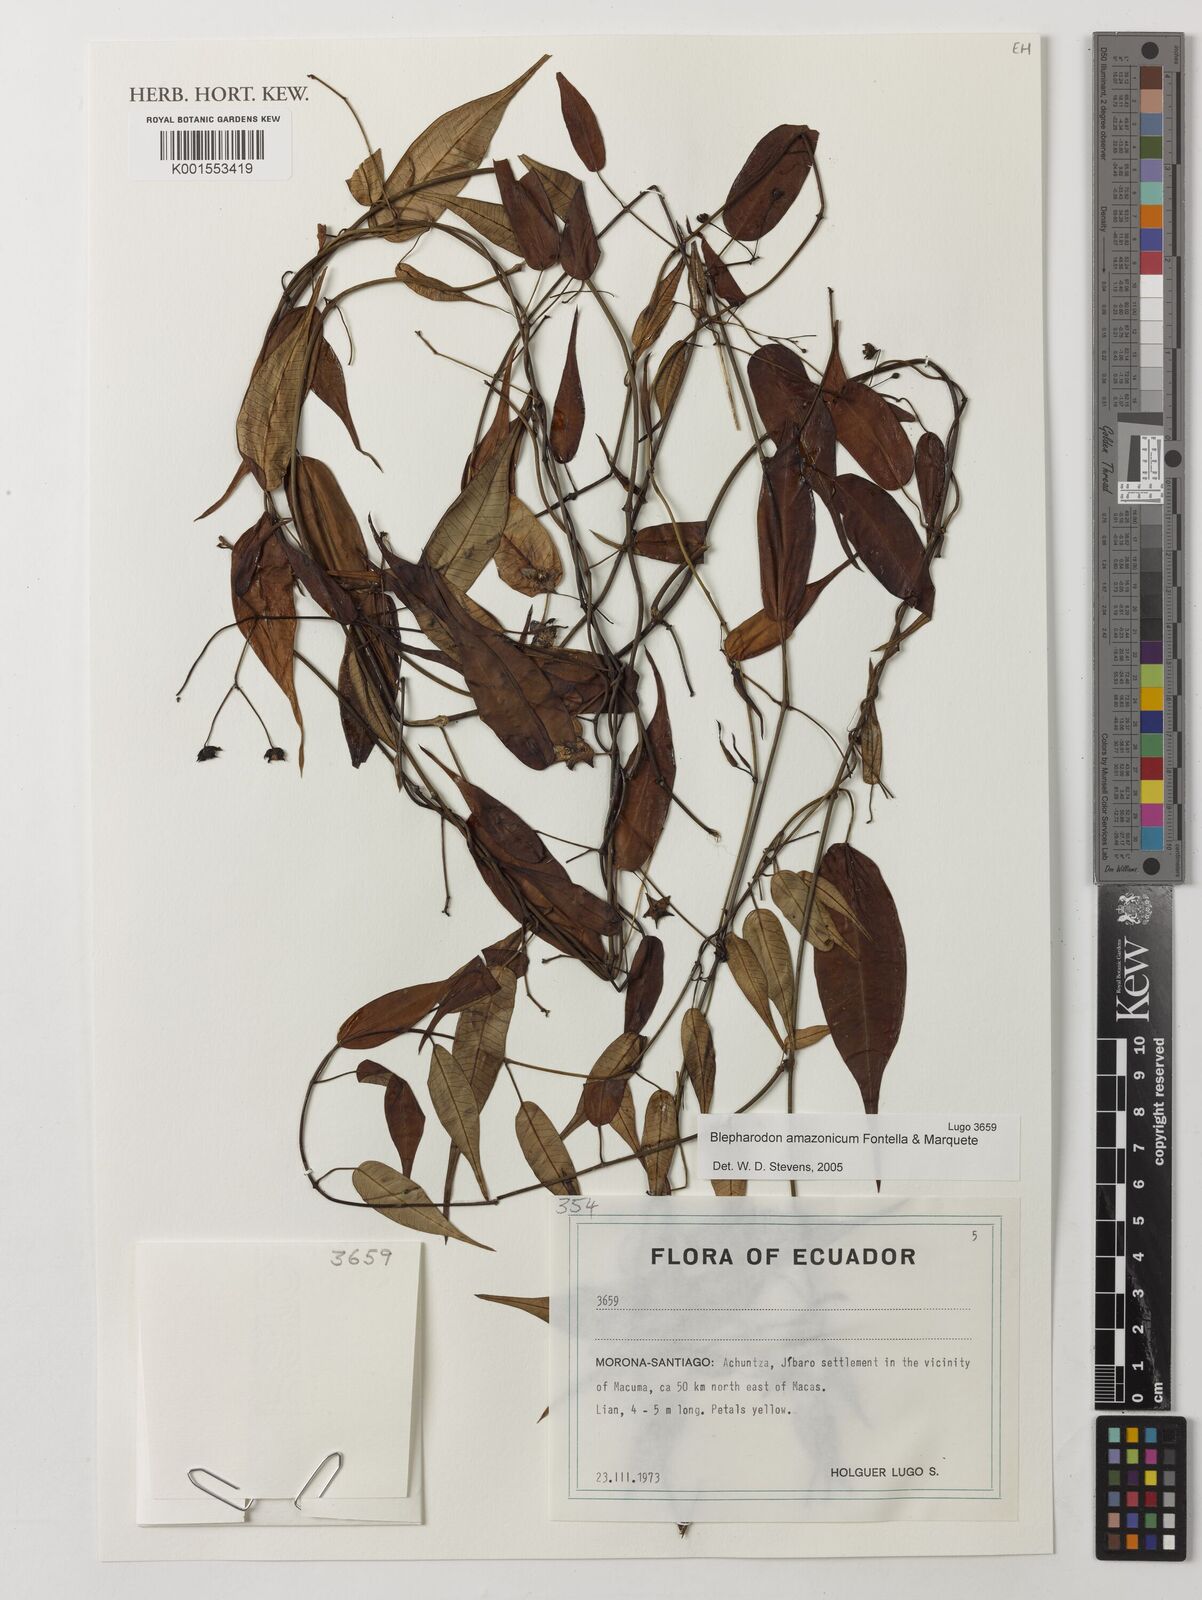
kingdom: Plantae
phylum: Tracheophyta
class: Magnoliopsida
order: Gentianales
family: Apocynaceae
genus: Blepharodon
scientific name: Blepharodon amazonicum
